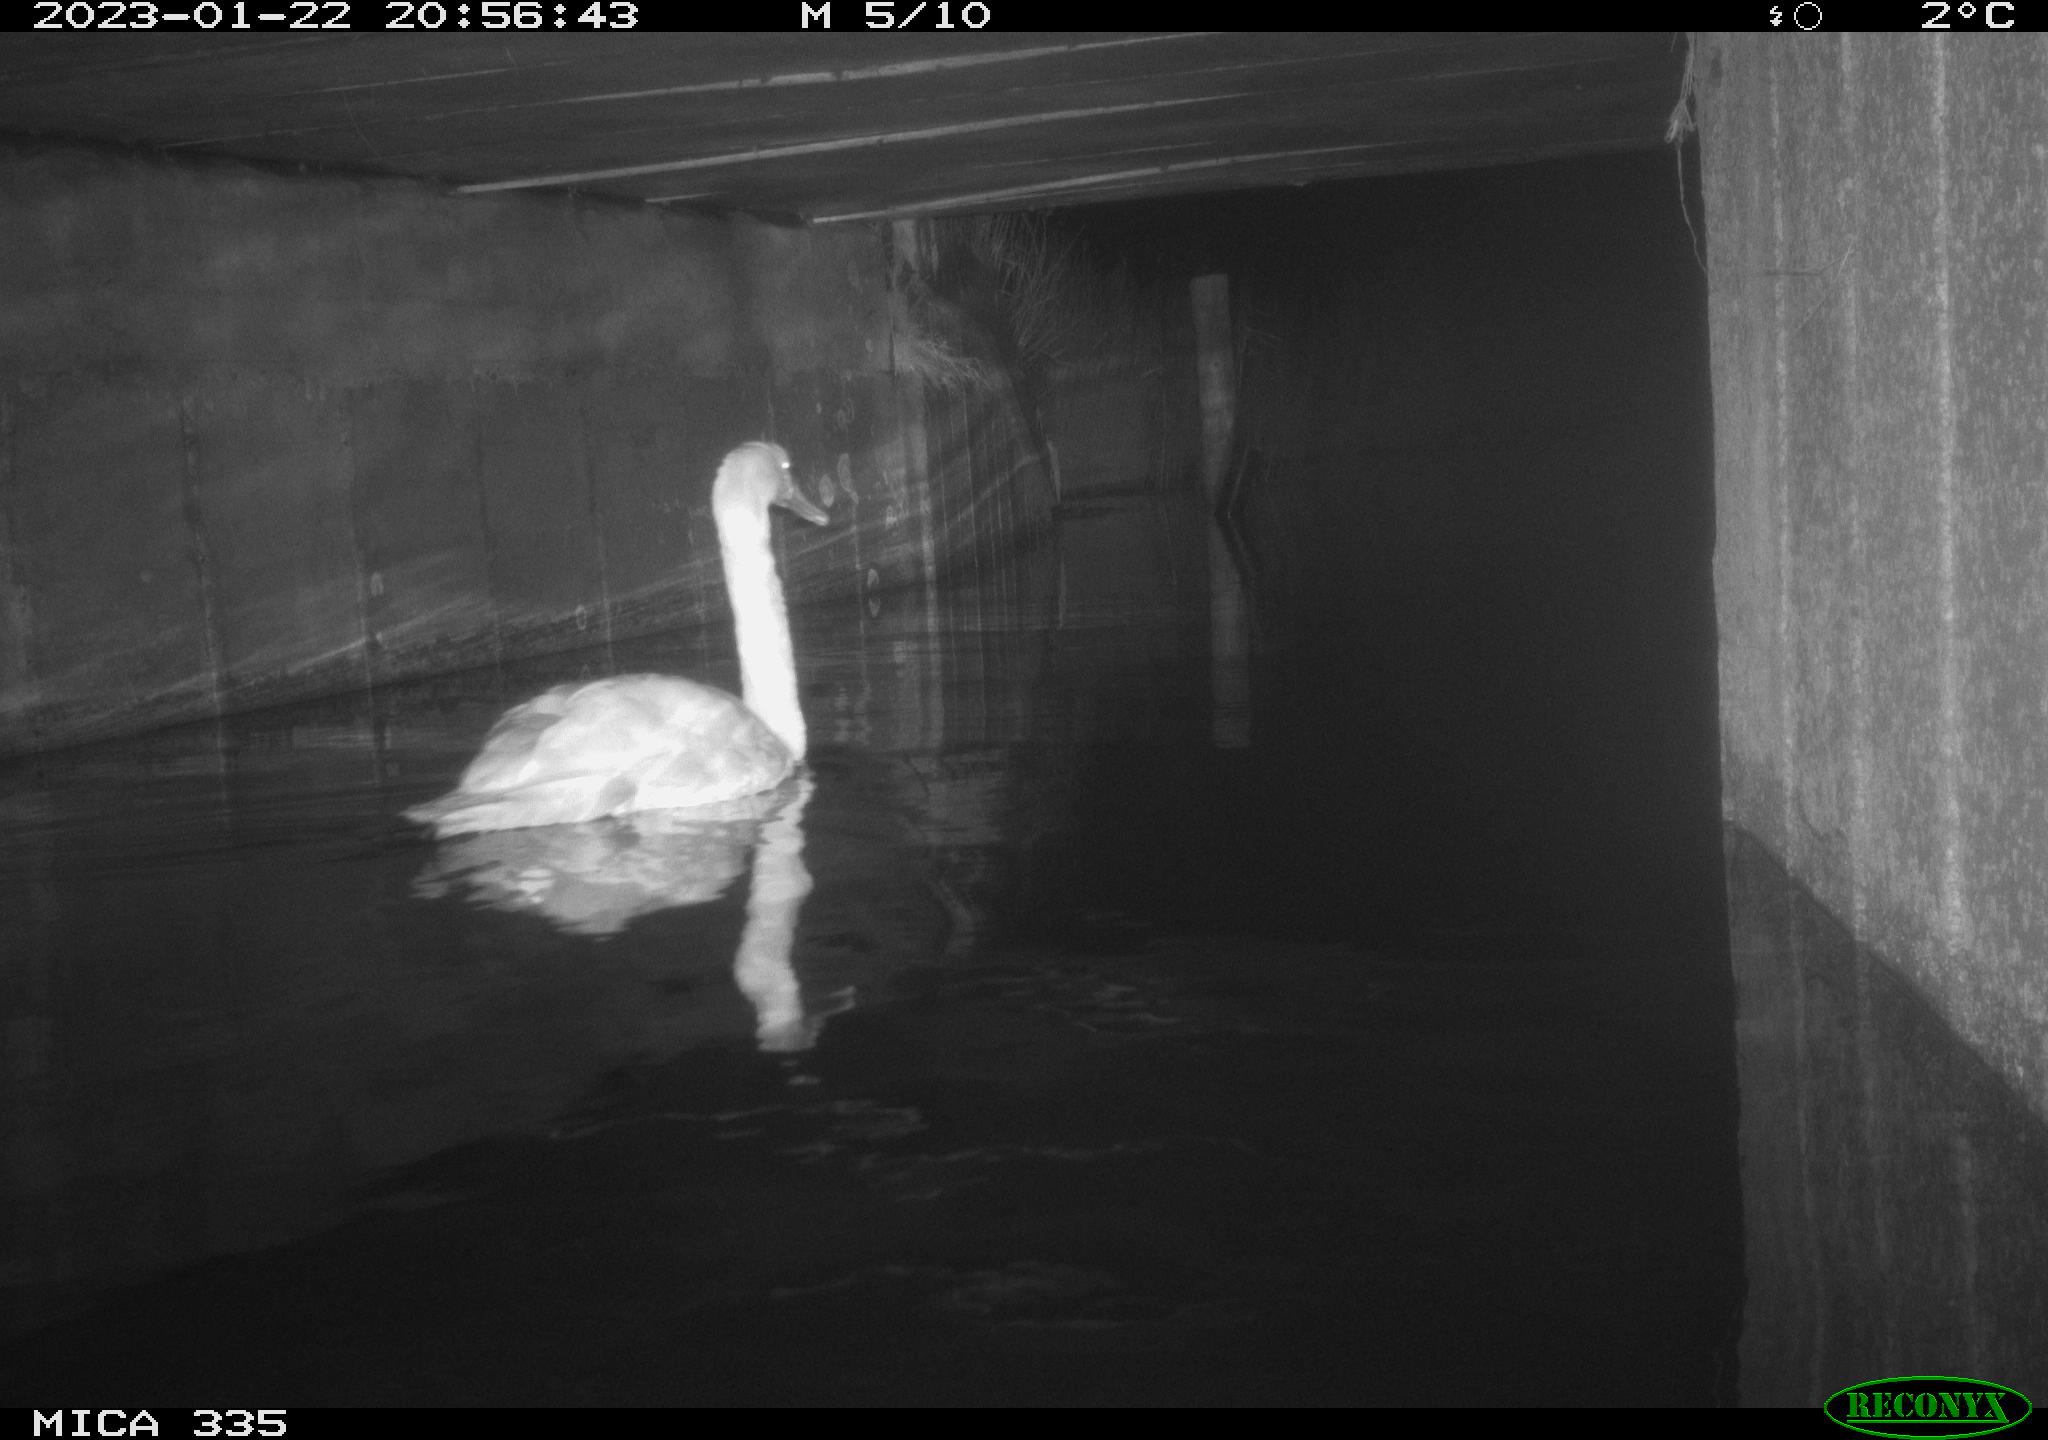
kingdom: Animalia
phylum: Chordata
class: Aves
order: Anseriformes
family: Anatidae
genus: Cygnus
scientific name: Cygnus olor
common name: Mute swan
